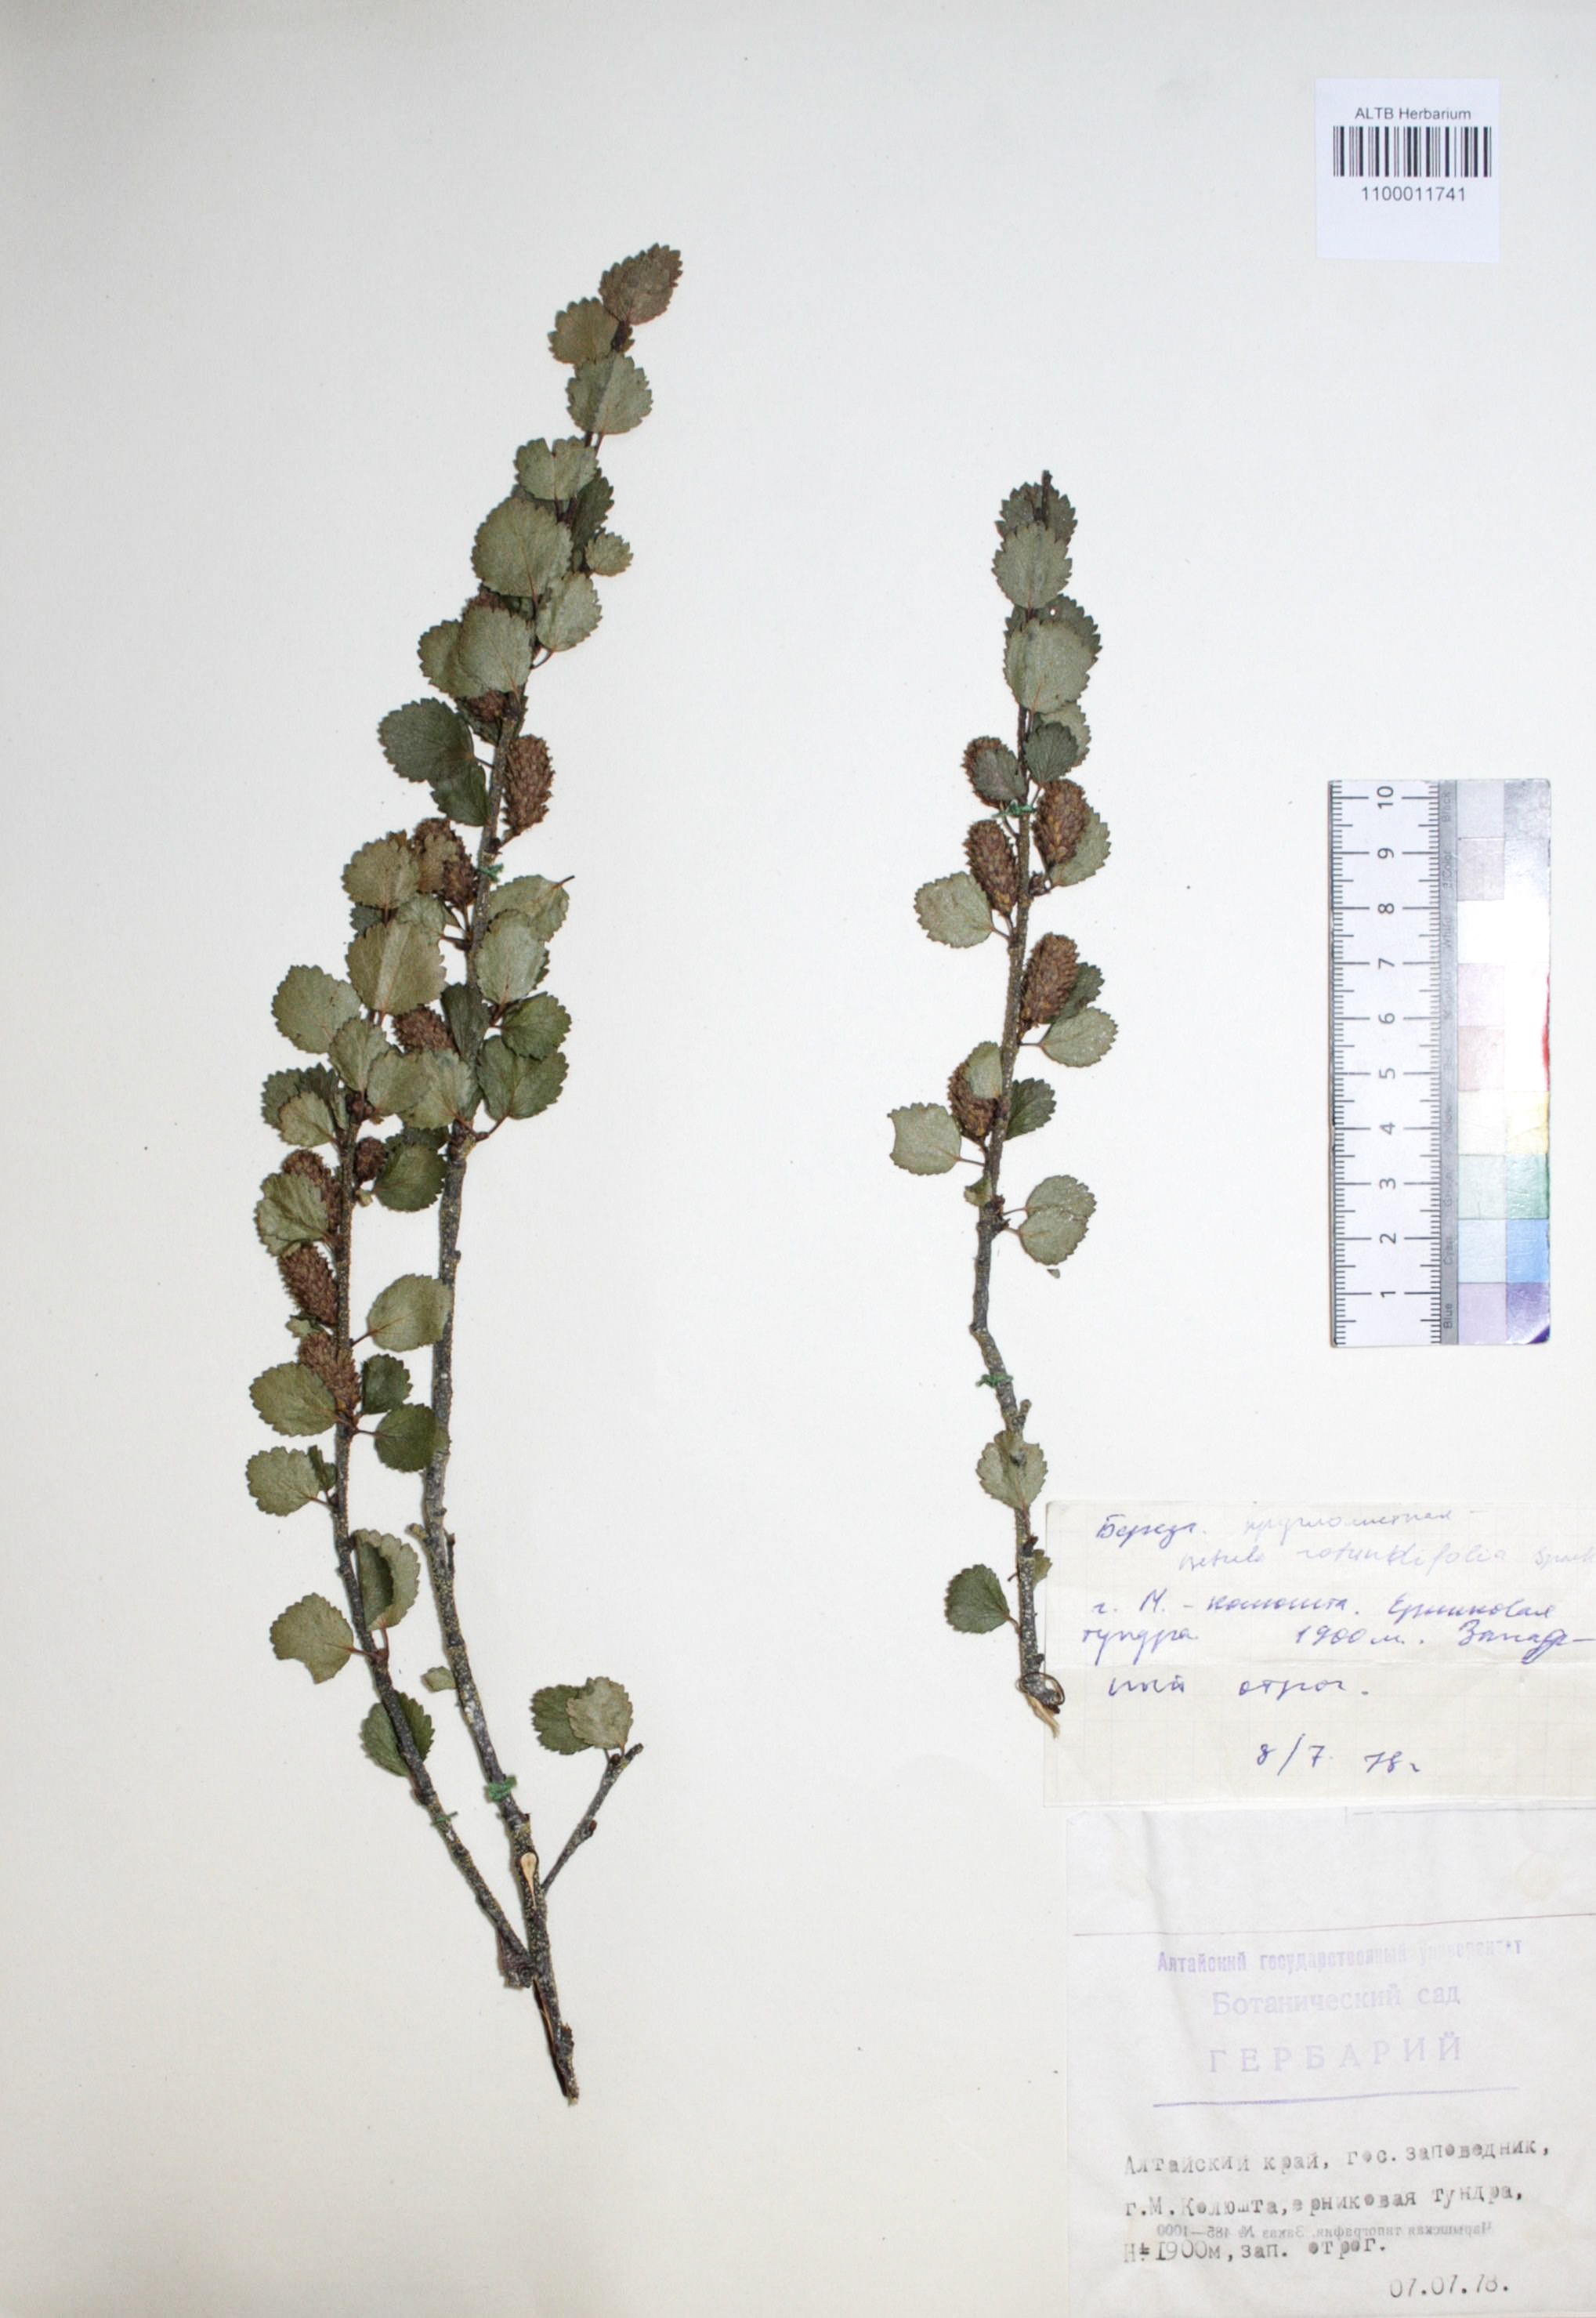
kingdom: Plantae
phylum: Tracheophyta
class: Magnoliopsida
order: Fagales
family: Betulaceae
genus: Betula
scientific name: Betula glandulosa
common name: Dwarf birch
